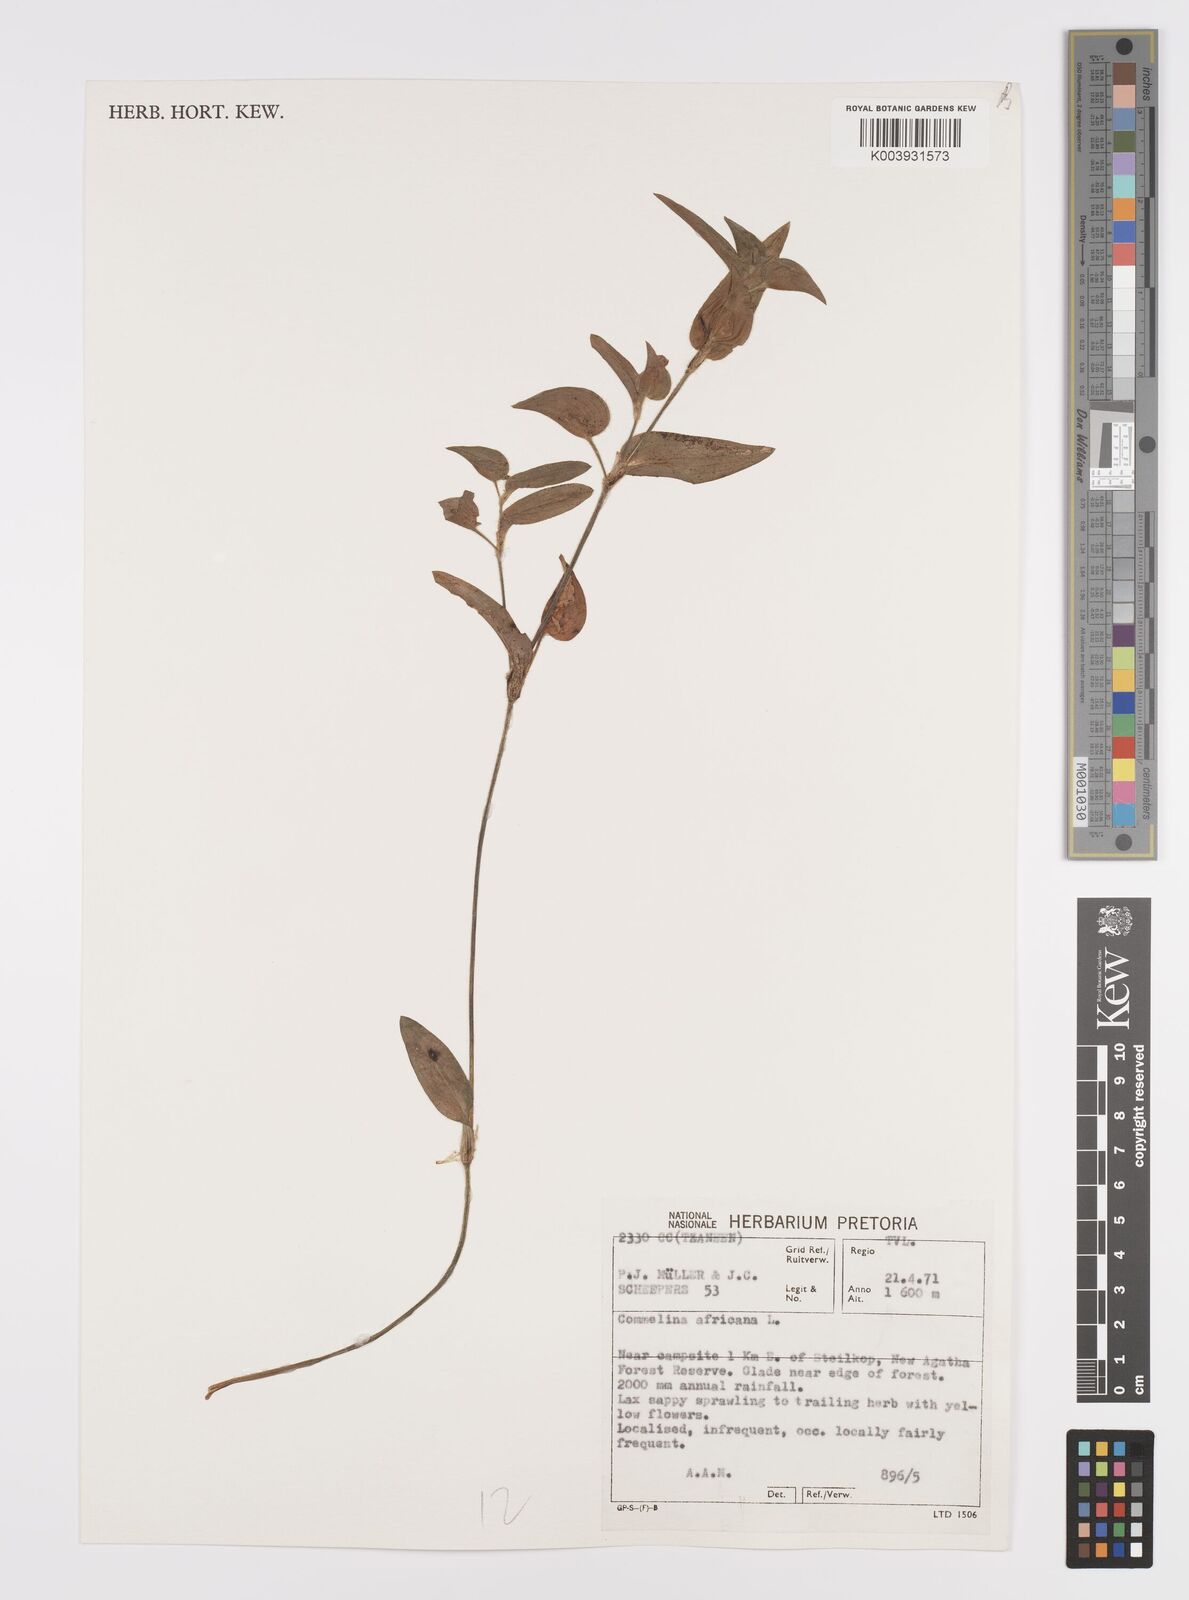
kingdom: Plantae
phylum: Tracheophyta
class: Liliopsida
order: Commelinales
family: Commelinaceae
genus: Commelina
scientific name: Commelina africana
